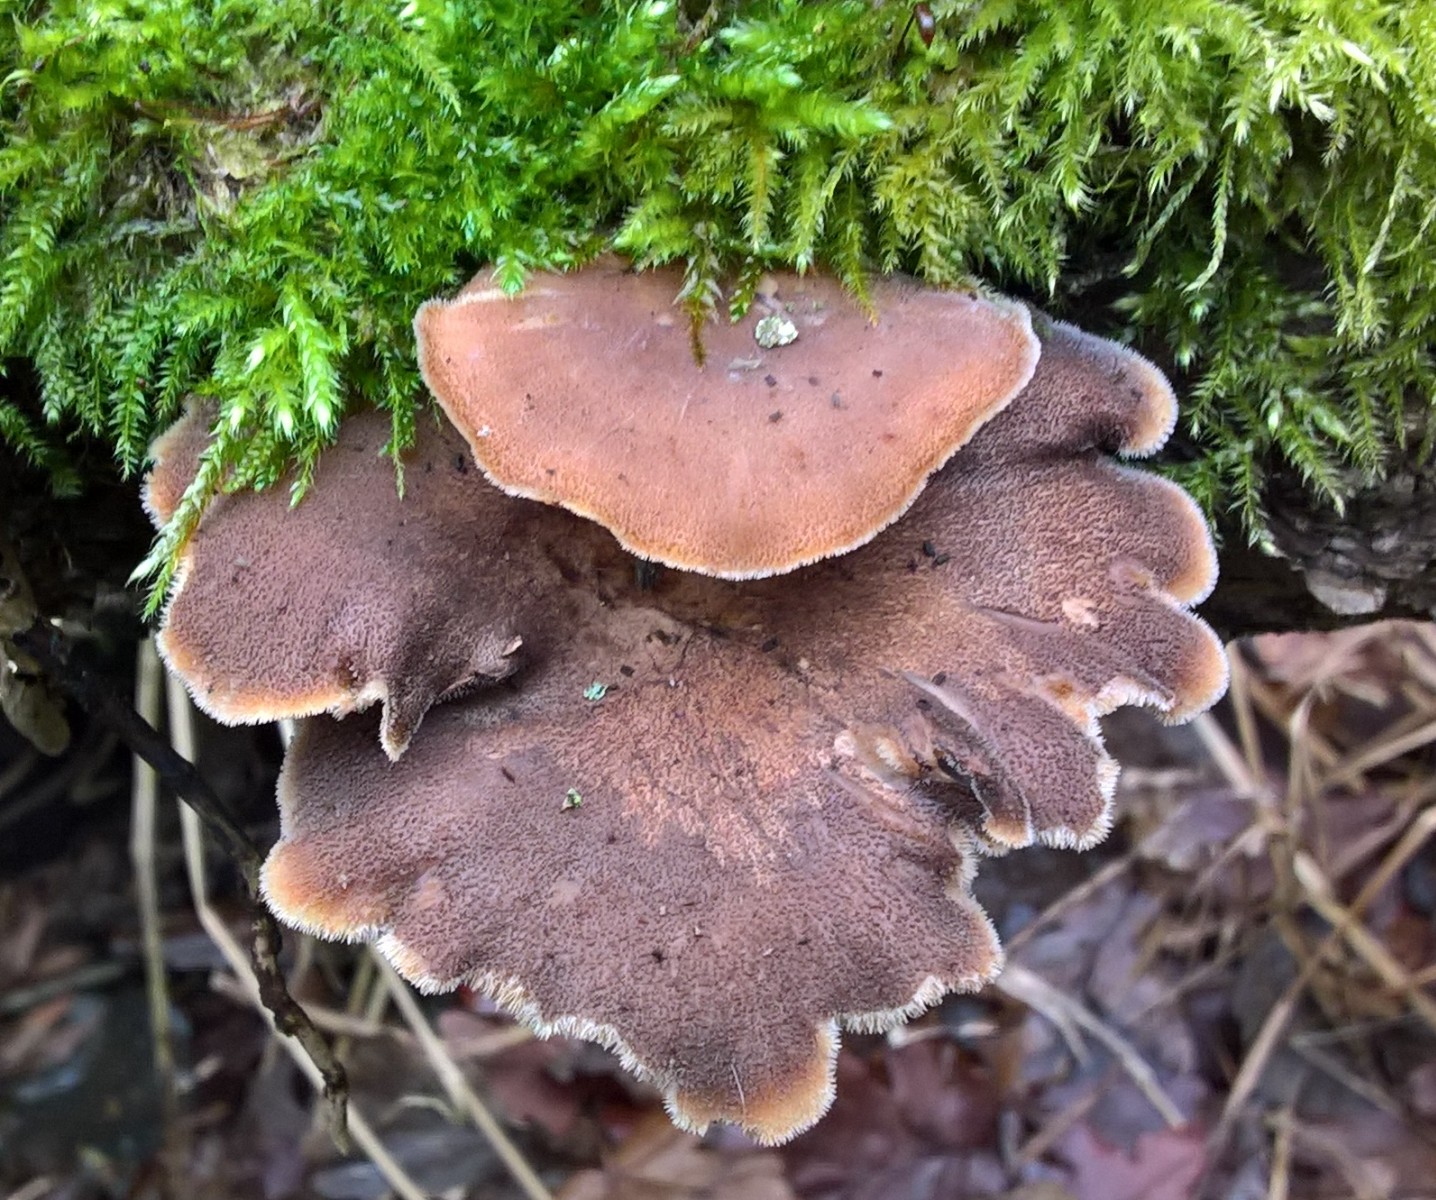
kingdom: Fungi
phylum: Basidiomycota
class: Agaricomycetes
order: Polyporales
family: Polyporaceae
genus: Lentinus
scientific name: Lentinus brumalis
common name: vinter-stilkporesvamp
